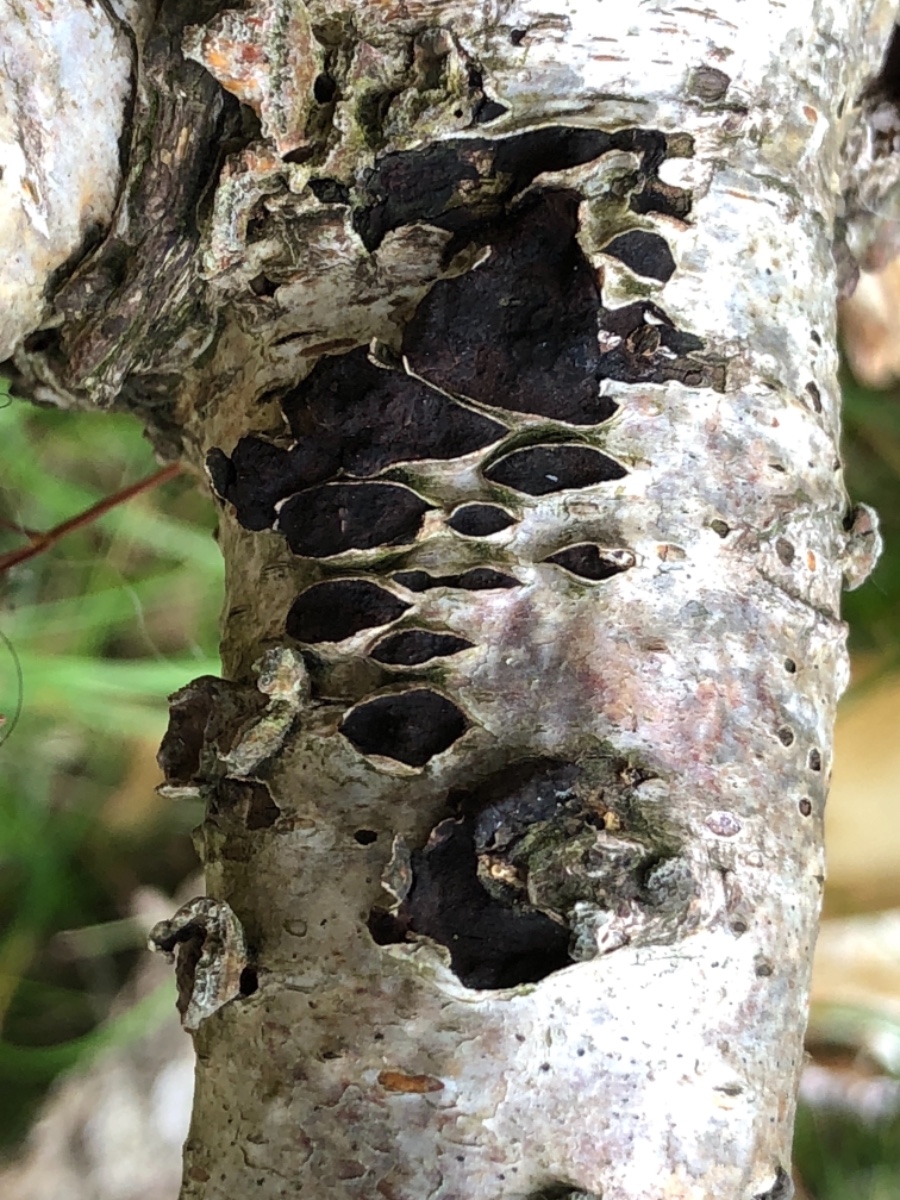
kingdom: Fungi
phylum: Ascomycota
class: Sordariomycetes
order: Xylariales
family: Hypoxylaceae
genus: Jackrogersella
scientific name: Jackrogersella multiformis
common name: foranderlig kulbær
